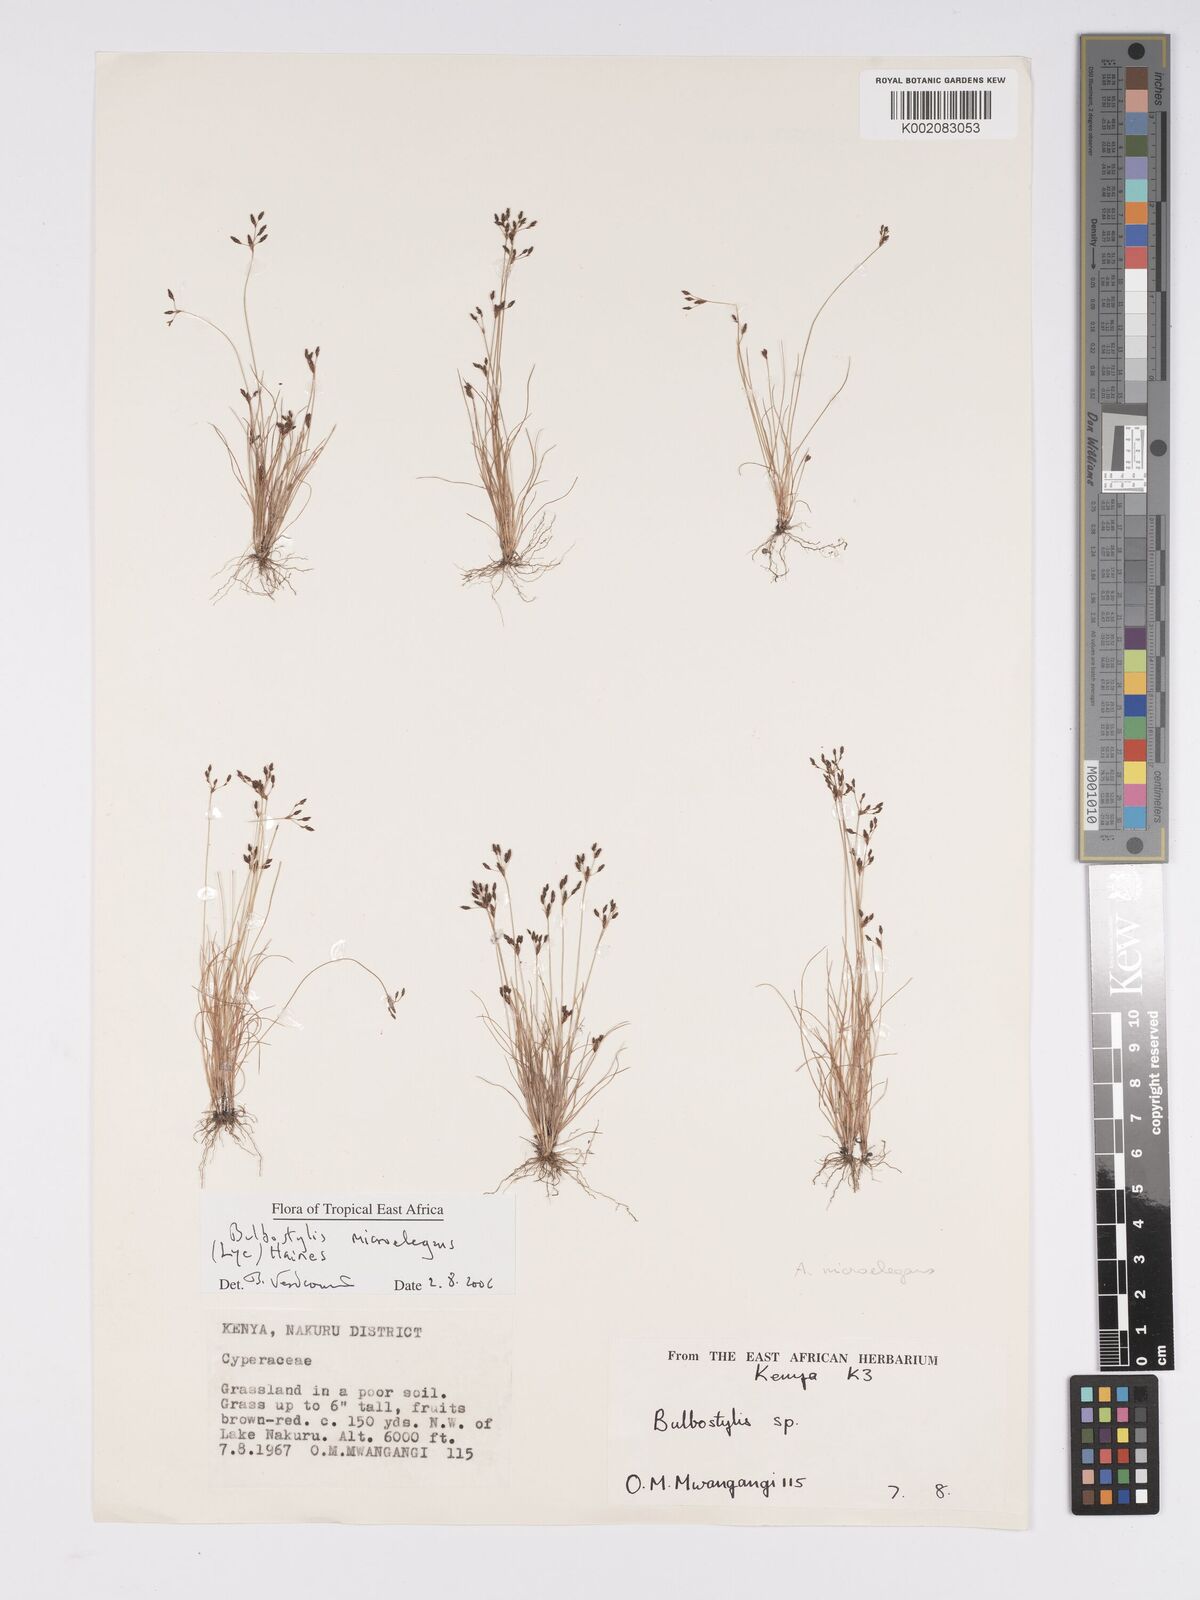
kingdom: Plantae
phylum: Tracheophyta
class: Liliopsida
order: Poales
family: Cyperaceae
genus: Bulbostylis
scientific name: Bulbostylis microelegans
